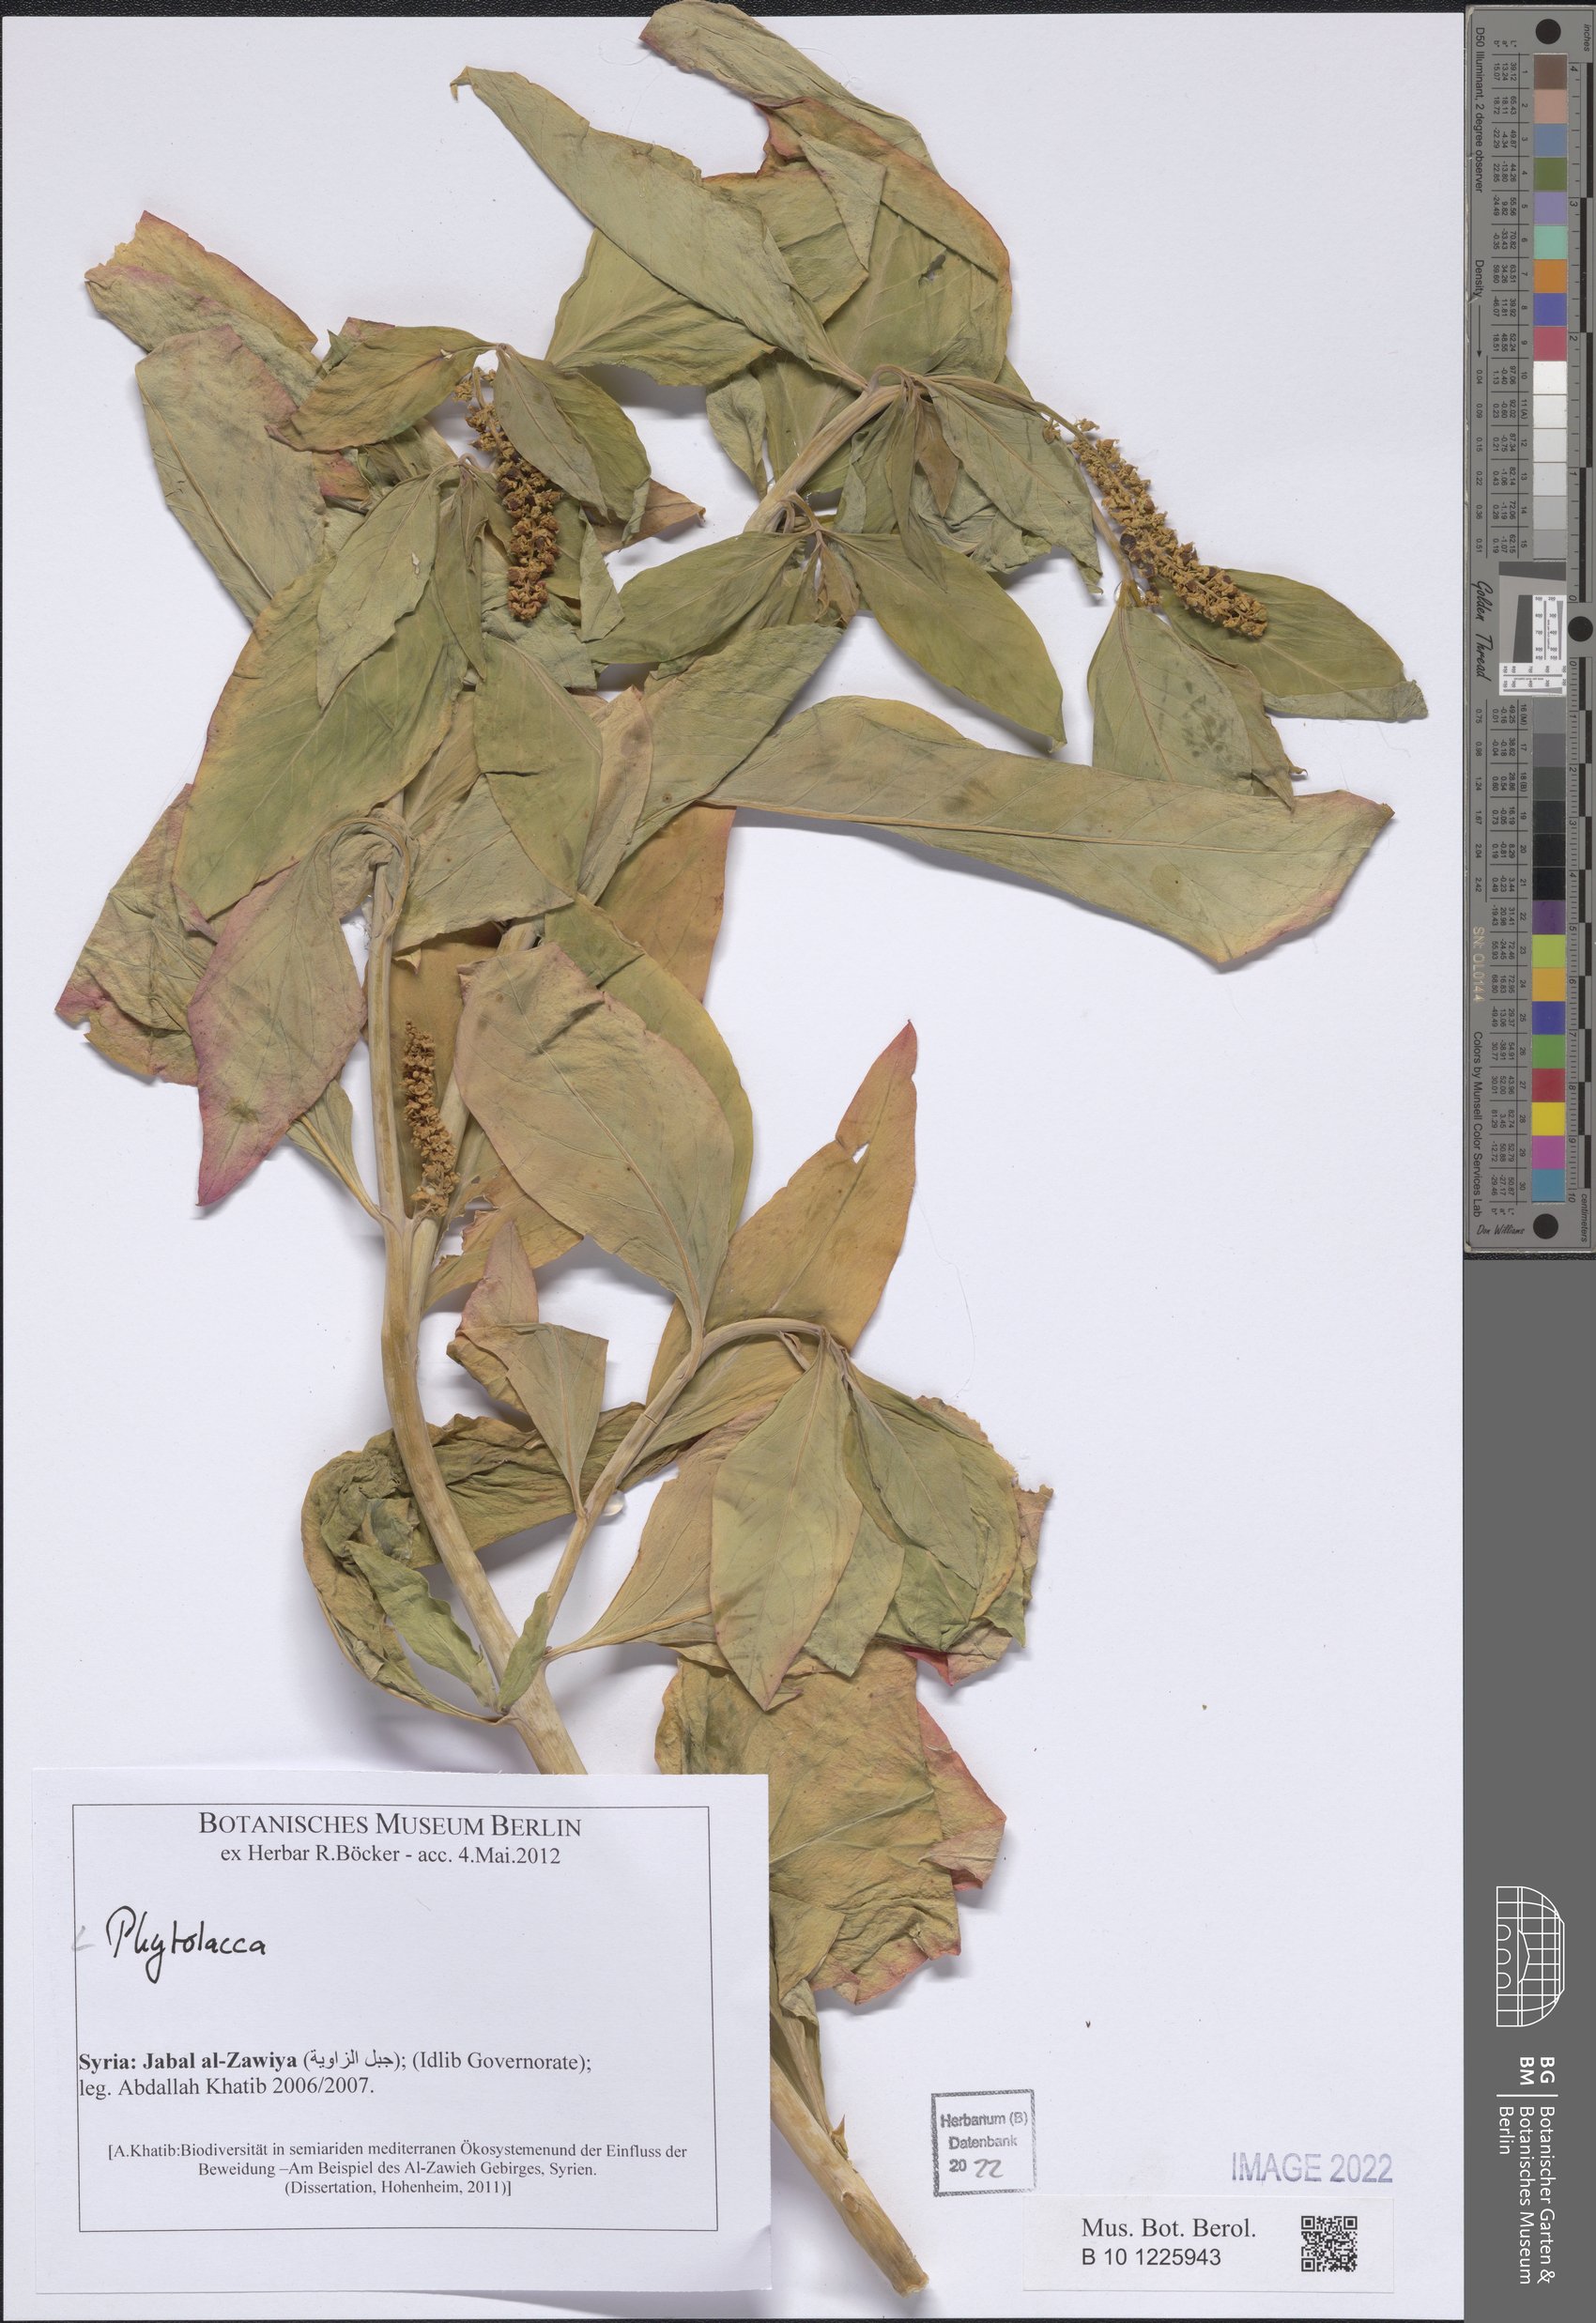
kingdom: Plantae
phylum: Tracheophyta
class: Magnoliopsida
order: Caryophyllales
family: Phytolaccaceae
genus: Phytolacca
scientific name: Phytolacca
